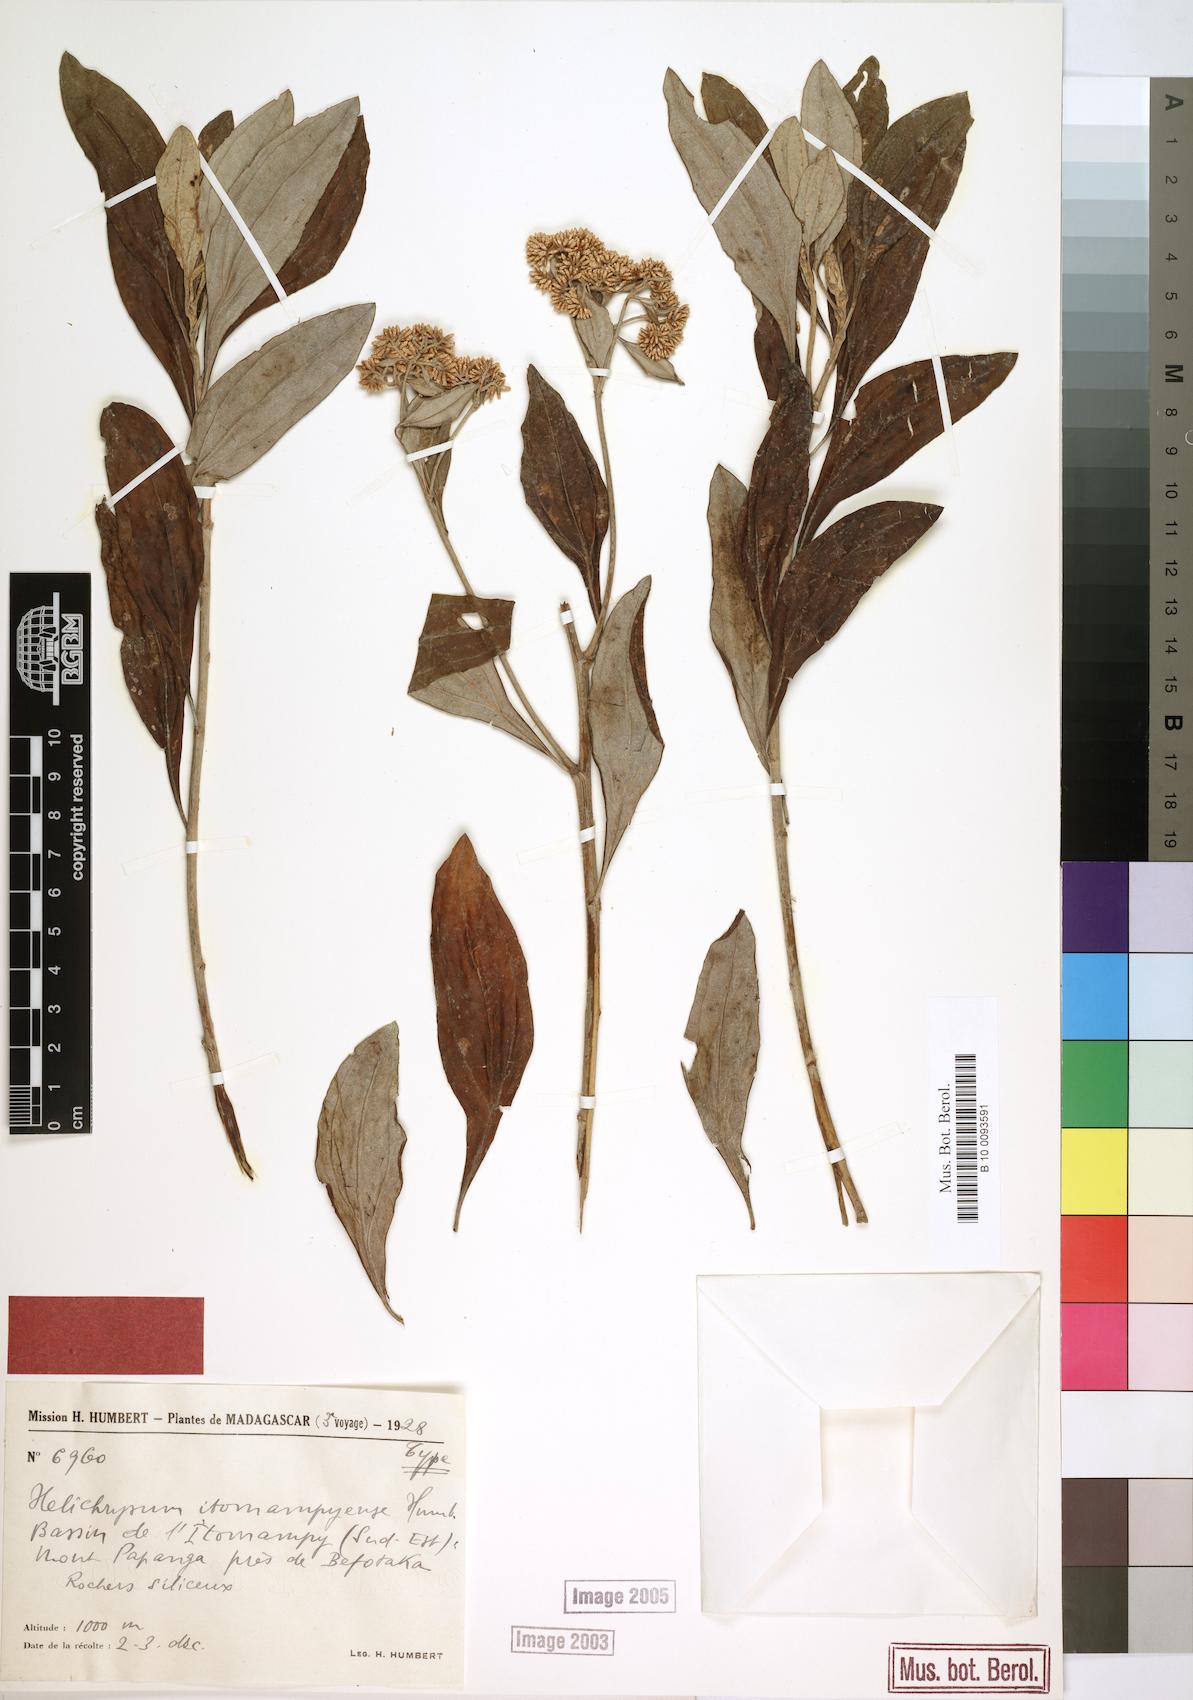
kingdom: Plantae
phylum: Tracheophyta
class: Magnoliopsida
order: Asterales
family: Asteraceae
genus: Helichrysum
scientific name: Helichrysum sarcolaenifolium
